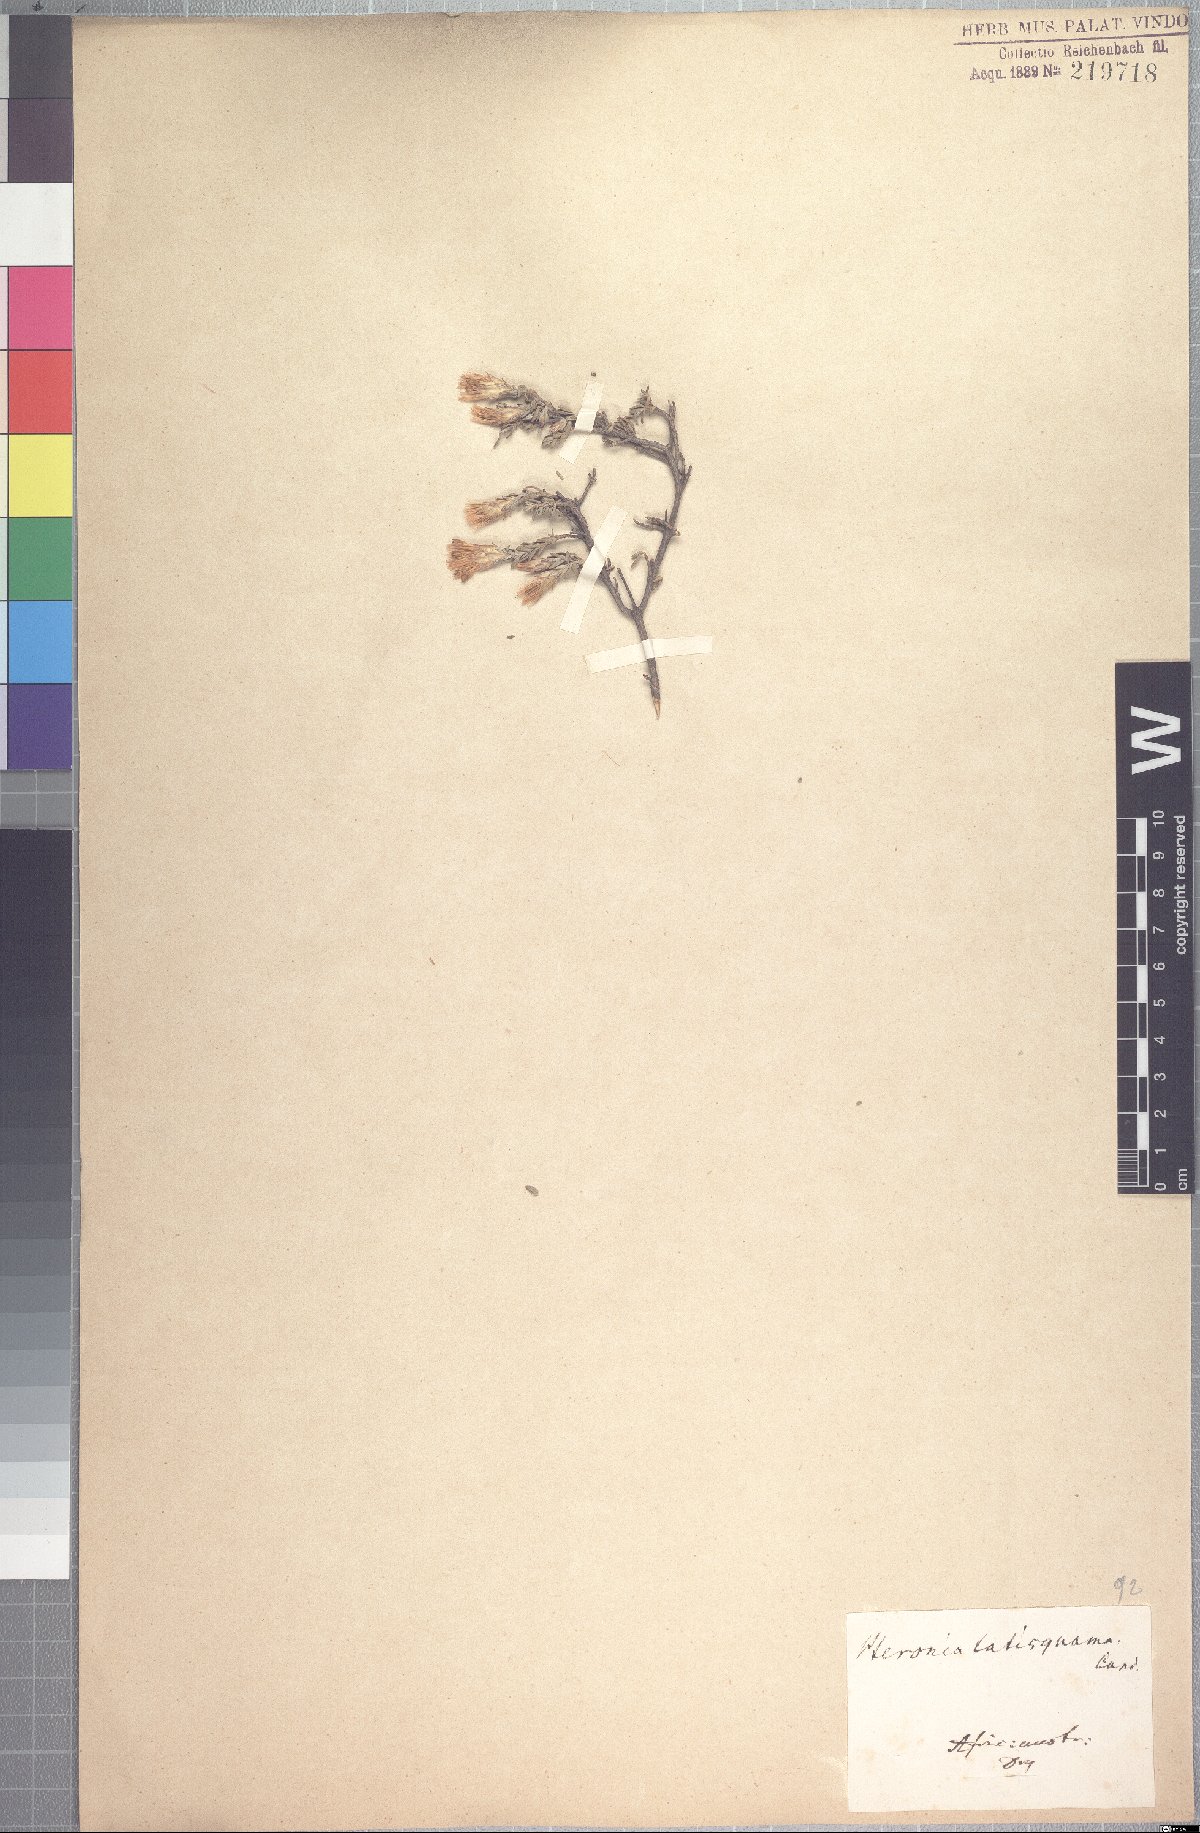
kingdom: Plantae
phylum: Tracheophyta
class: Magnoliopsida
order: Asterales
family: Asteraceae
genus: Pteronia
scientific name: Pteronia glauca
